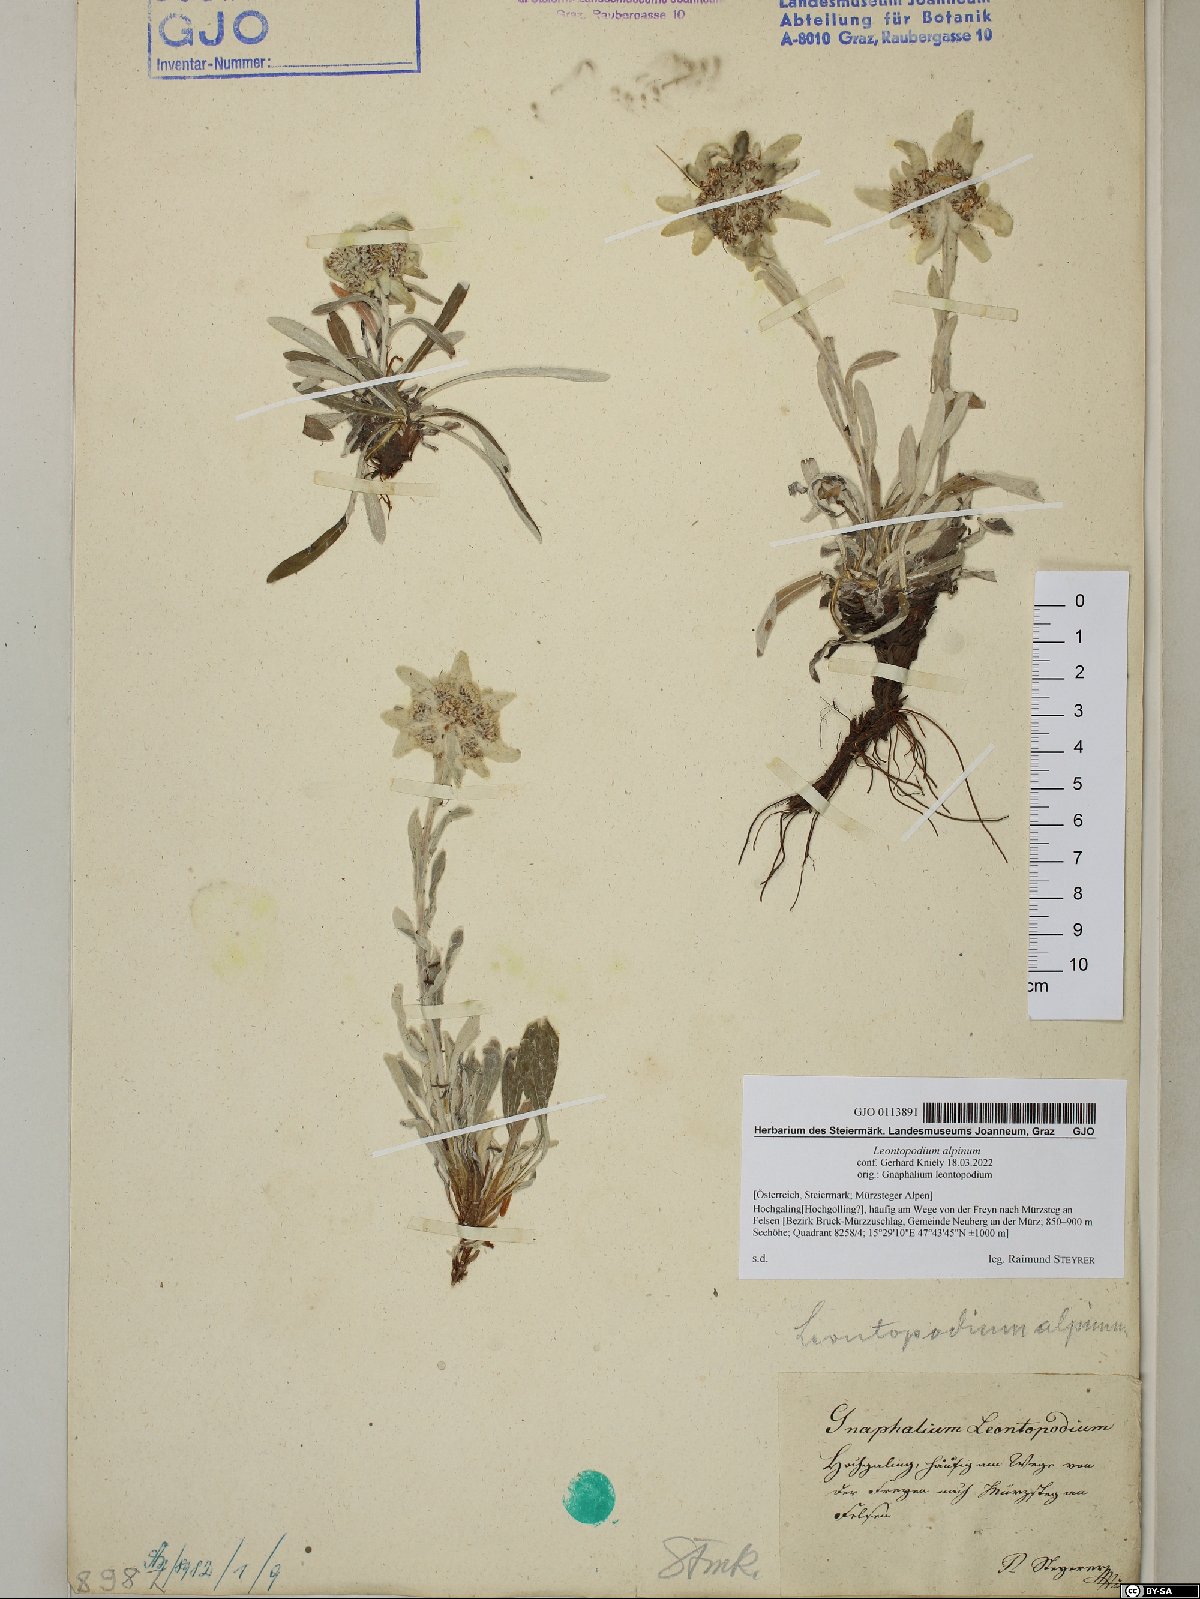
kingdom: Plantae
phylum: Tracheophyta
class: Magnoliopsida
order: Asterales
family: Asteraceae
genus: Leontopodium
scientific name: Leontopodium nivale
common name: Edelweiss
